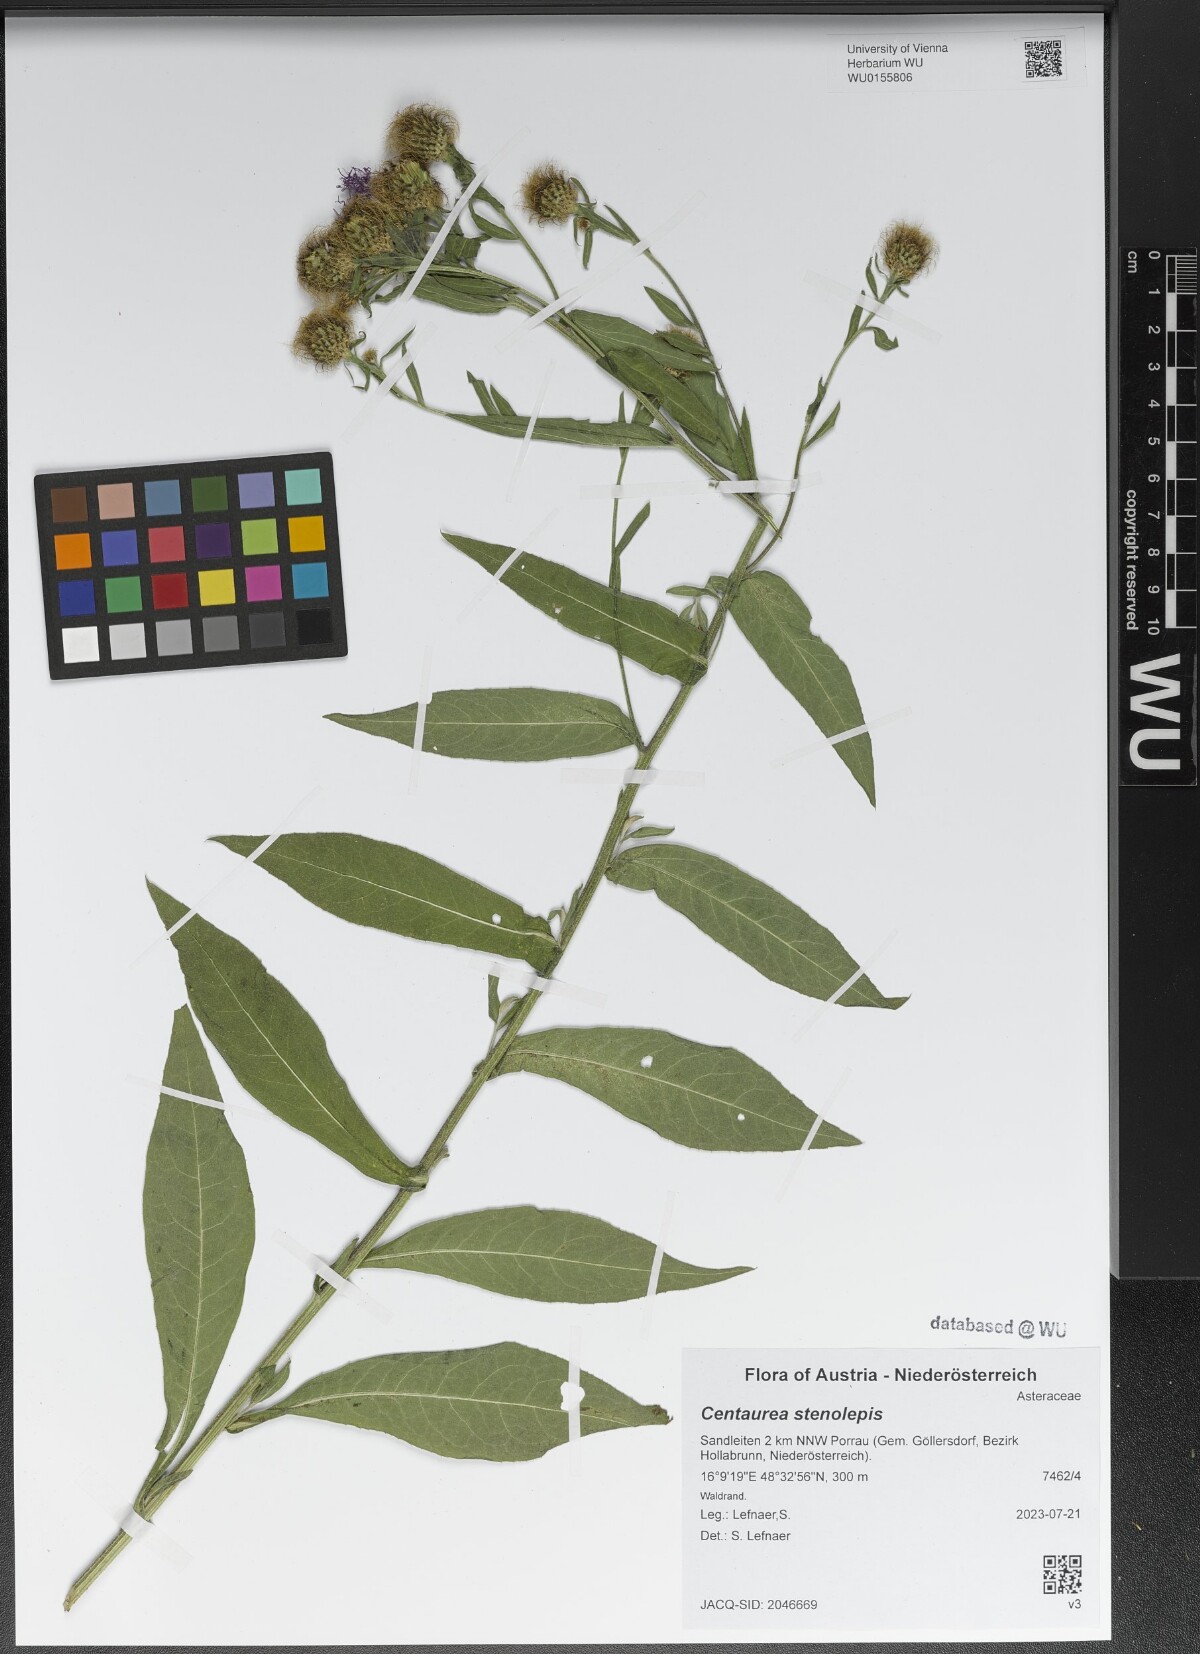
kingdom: Plantae
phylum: Tracheophyta
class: Magnoliopsida
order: Asterales
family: Asteraceae
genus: Centaurea
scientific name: Centaurea stenolepis
